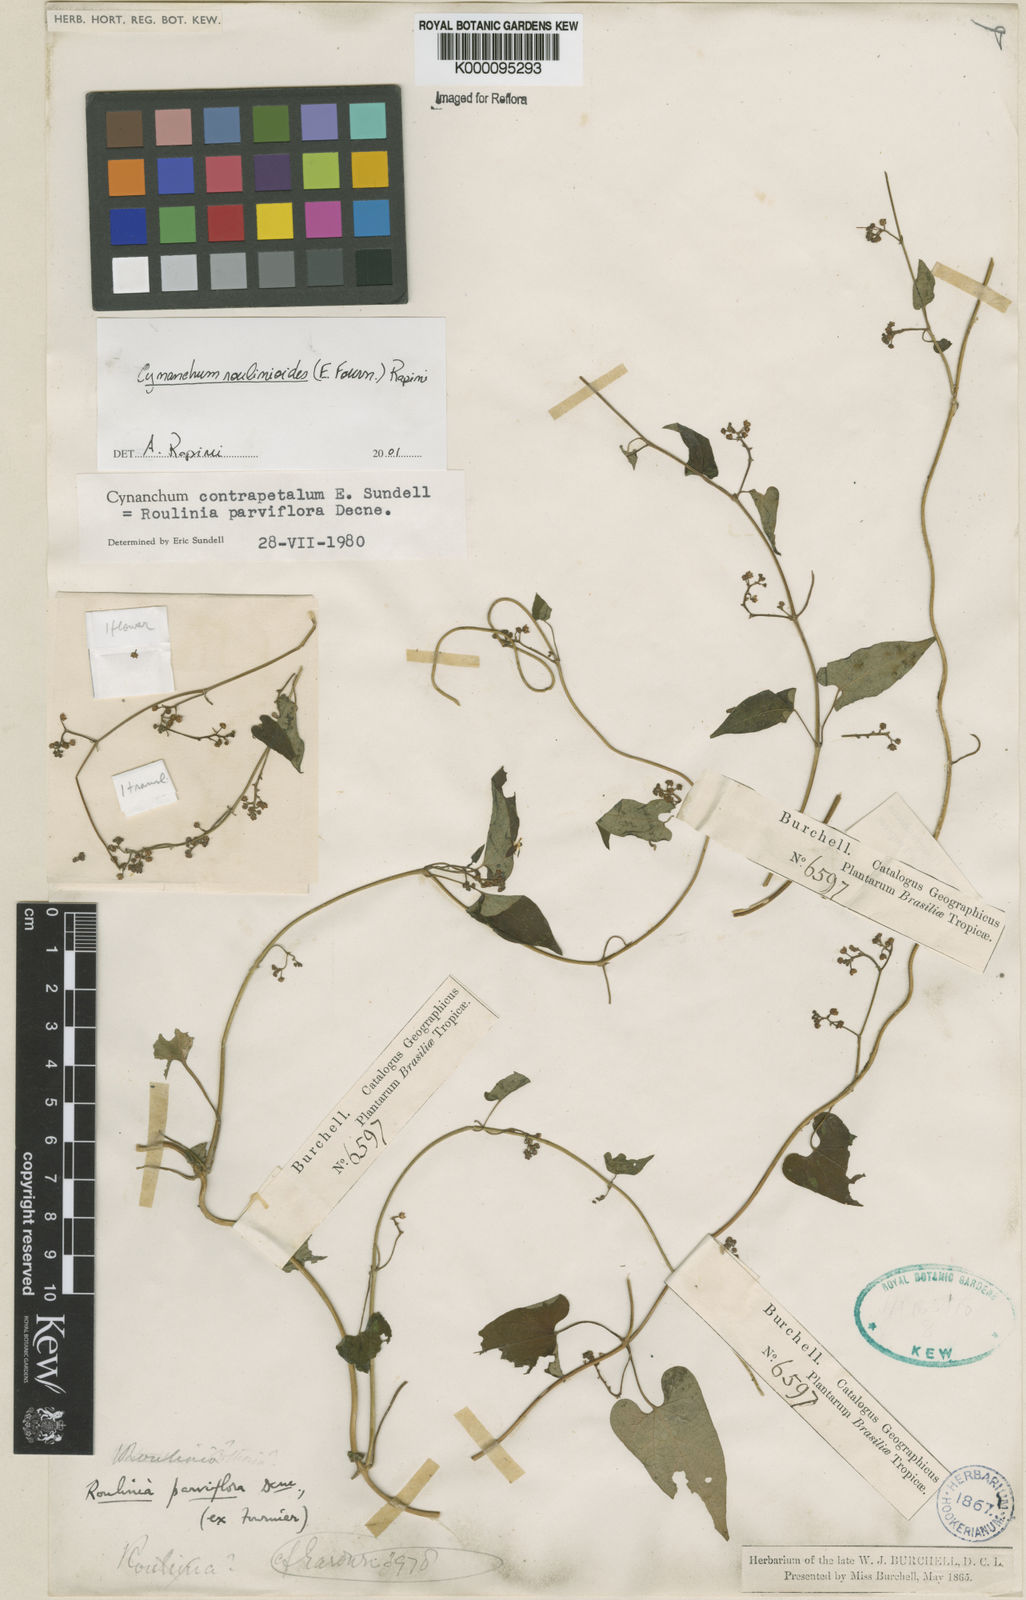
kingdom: Plantae
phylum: Tracheophyta
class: Magnoliopsida
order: Gentianales
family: Apocynaceae
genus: Cynanchum
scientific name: Cynanchum roulinioides
